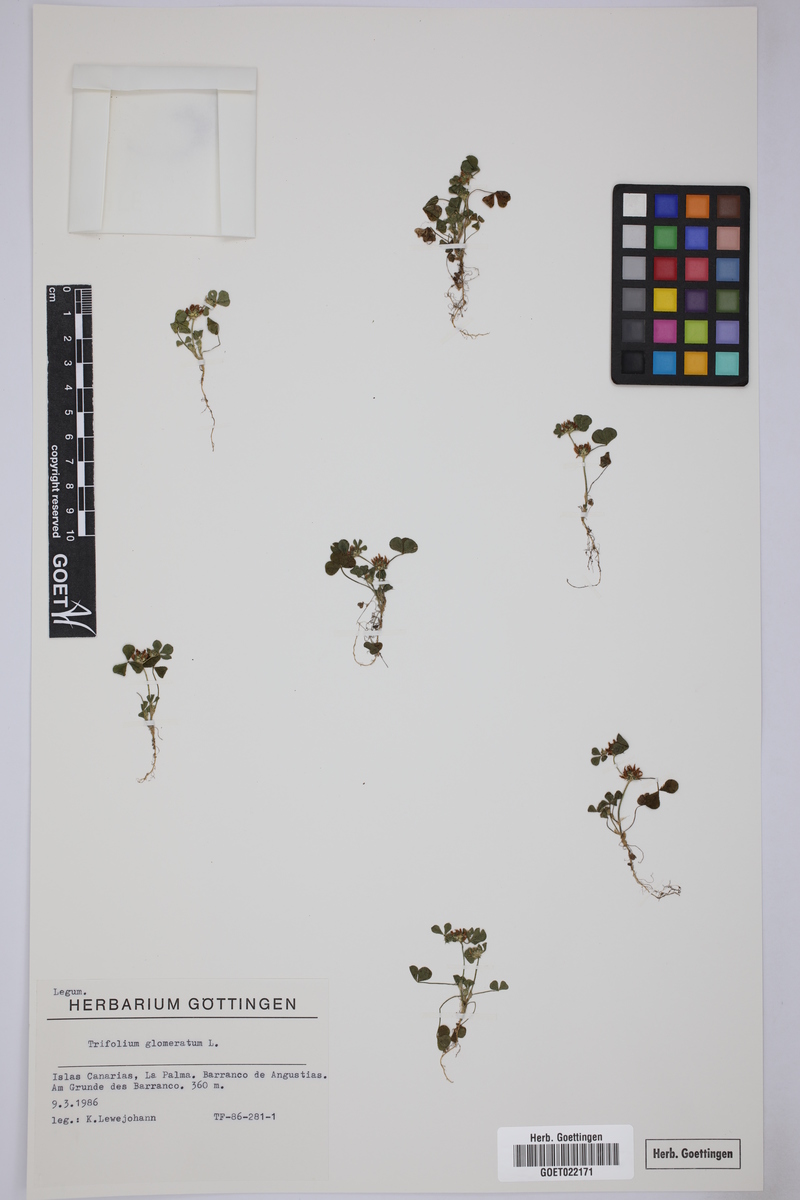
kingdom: Plantae
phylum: Tracheophyta
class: Magnoliopsida
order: Fabales
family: Fabaceae
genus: Trifolium
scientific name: Trifolium glomeratum
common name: Clustered clover
